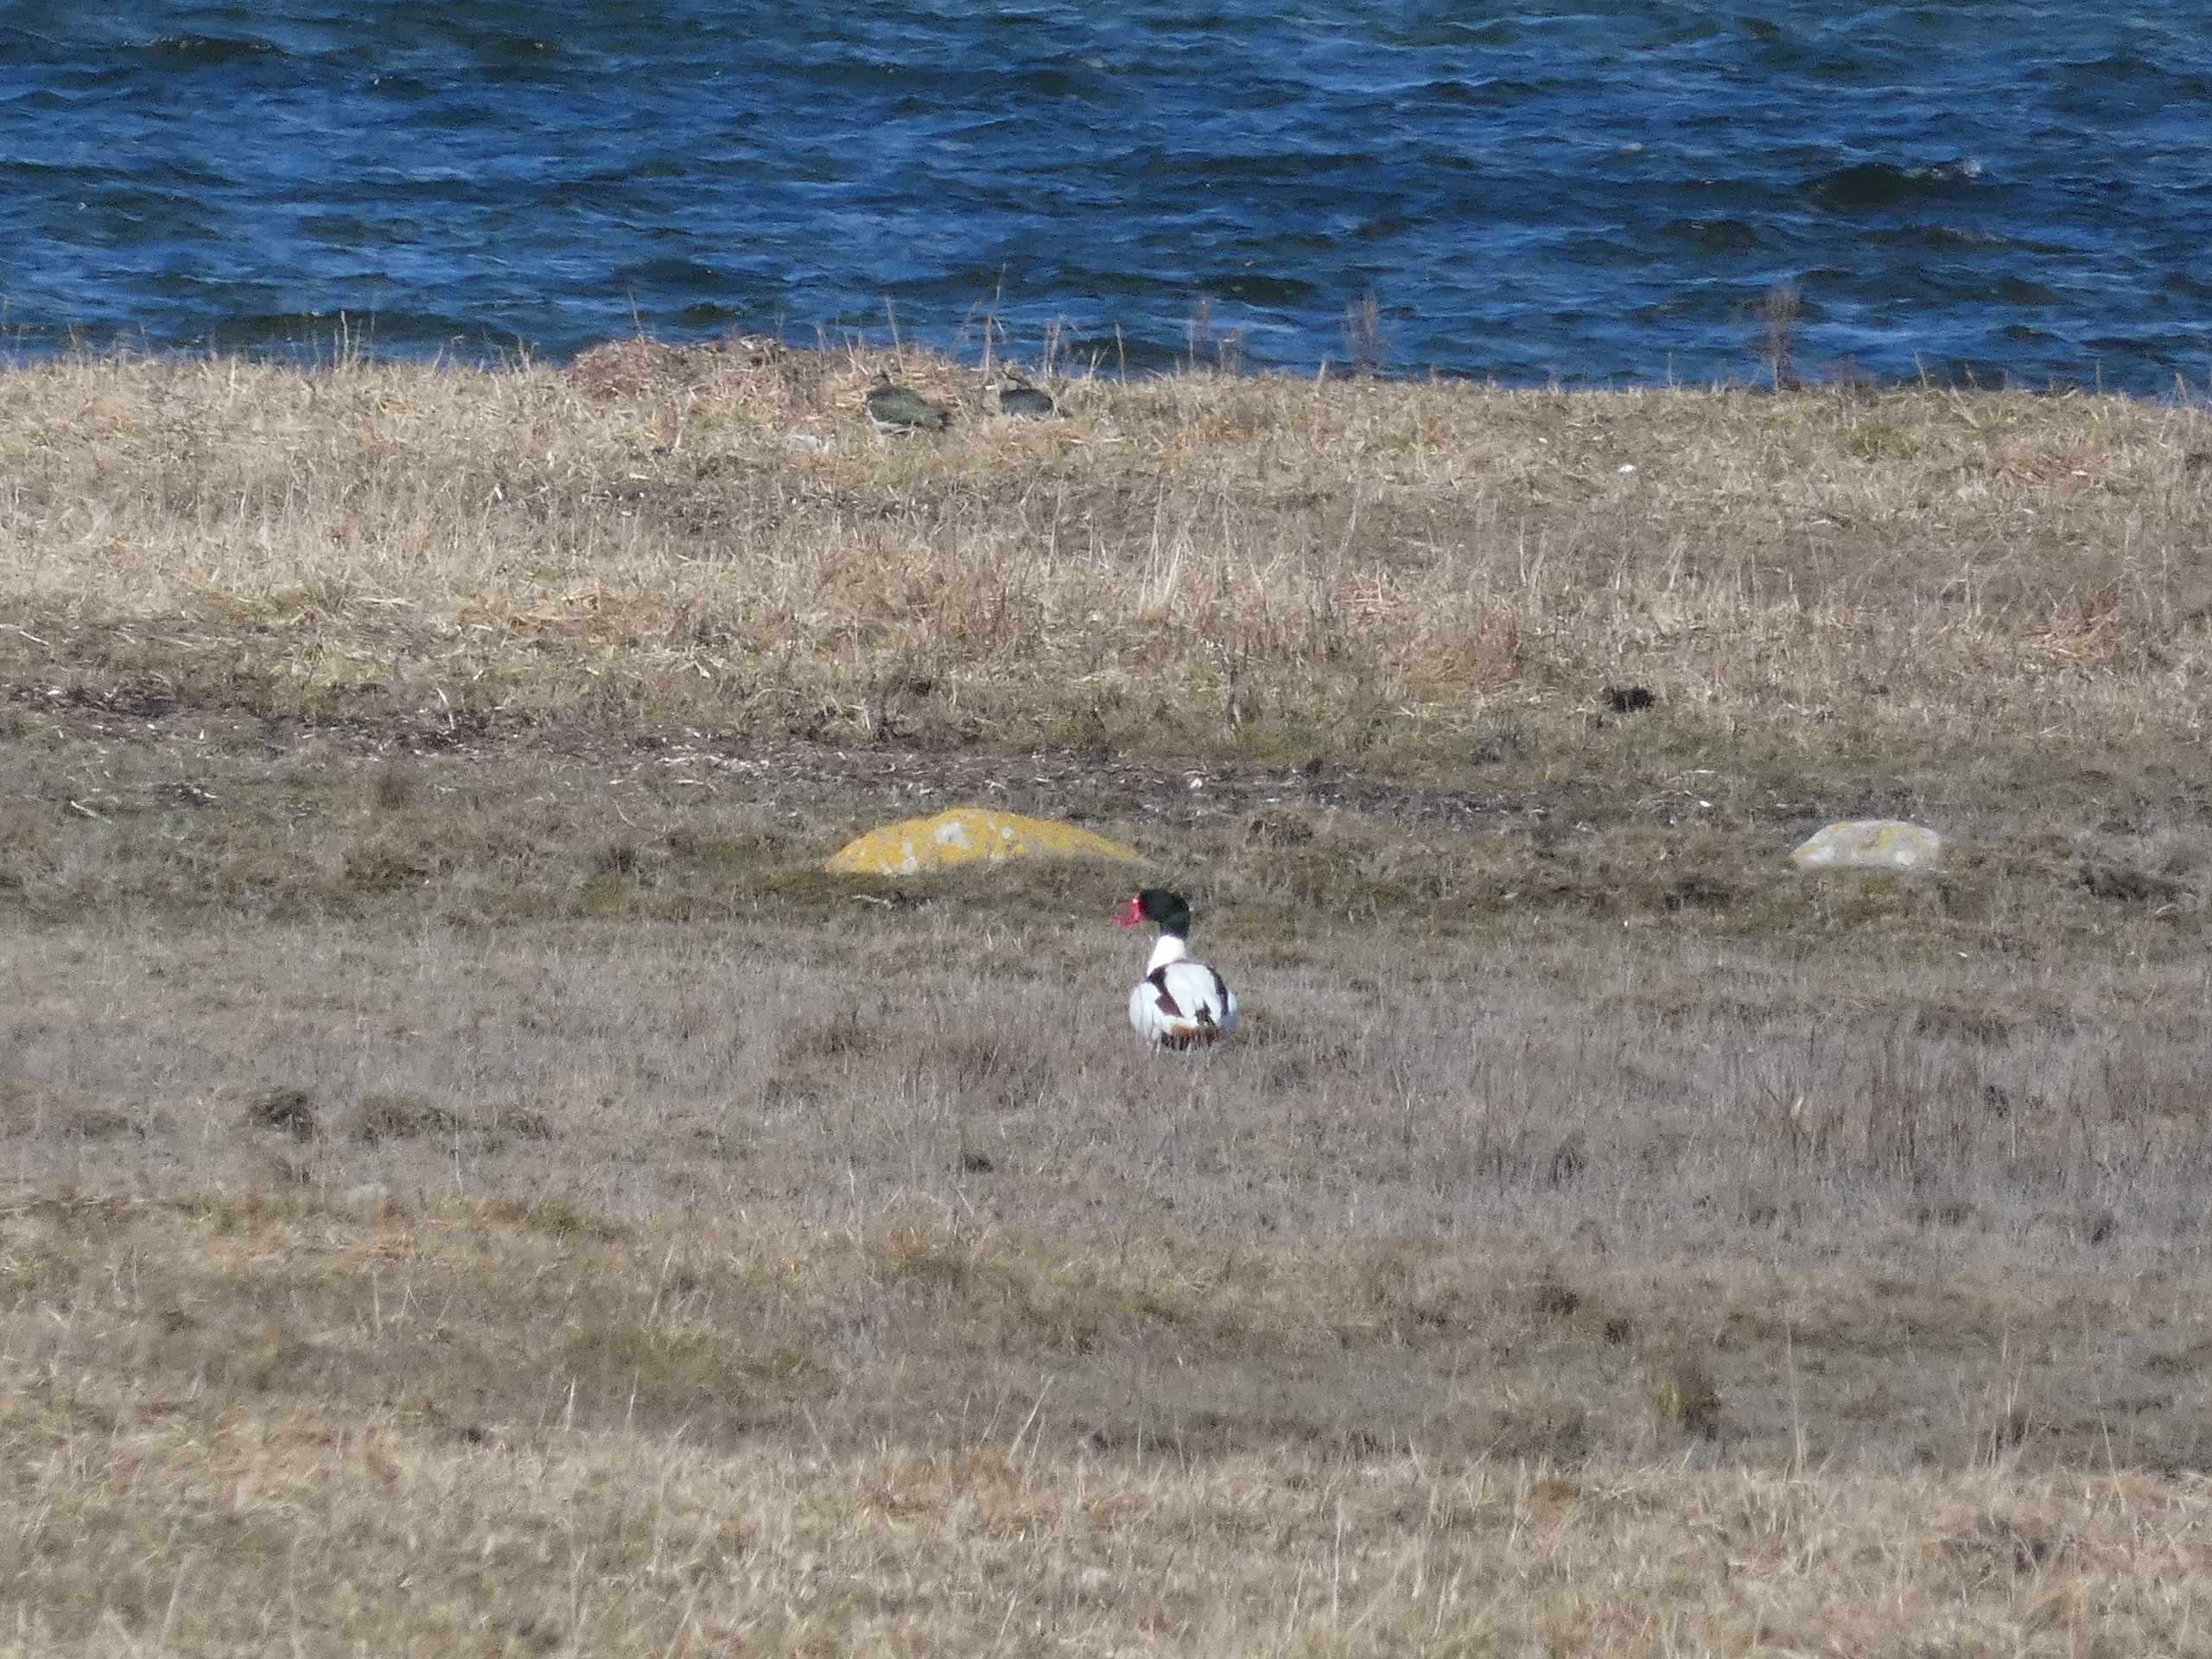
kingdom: Animalia
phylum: Chordata
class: Aves
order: Anseriformes
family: Anatidae
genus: Tadorna
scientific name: Tadorna tadorna
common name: Gravand
